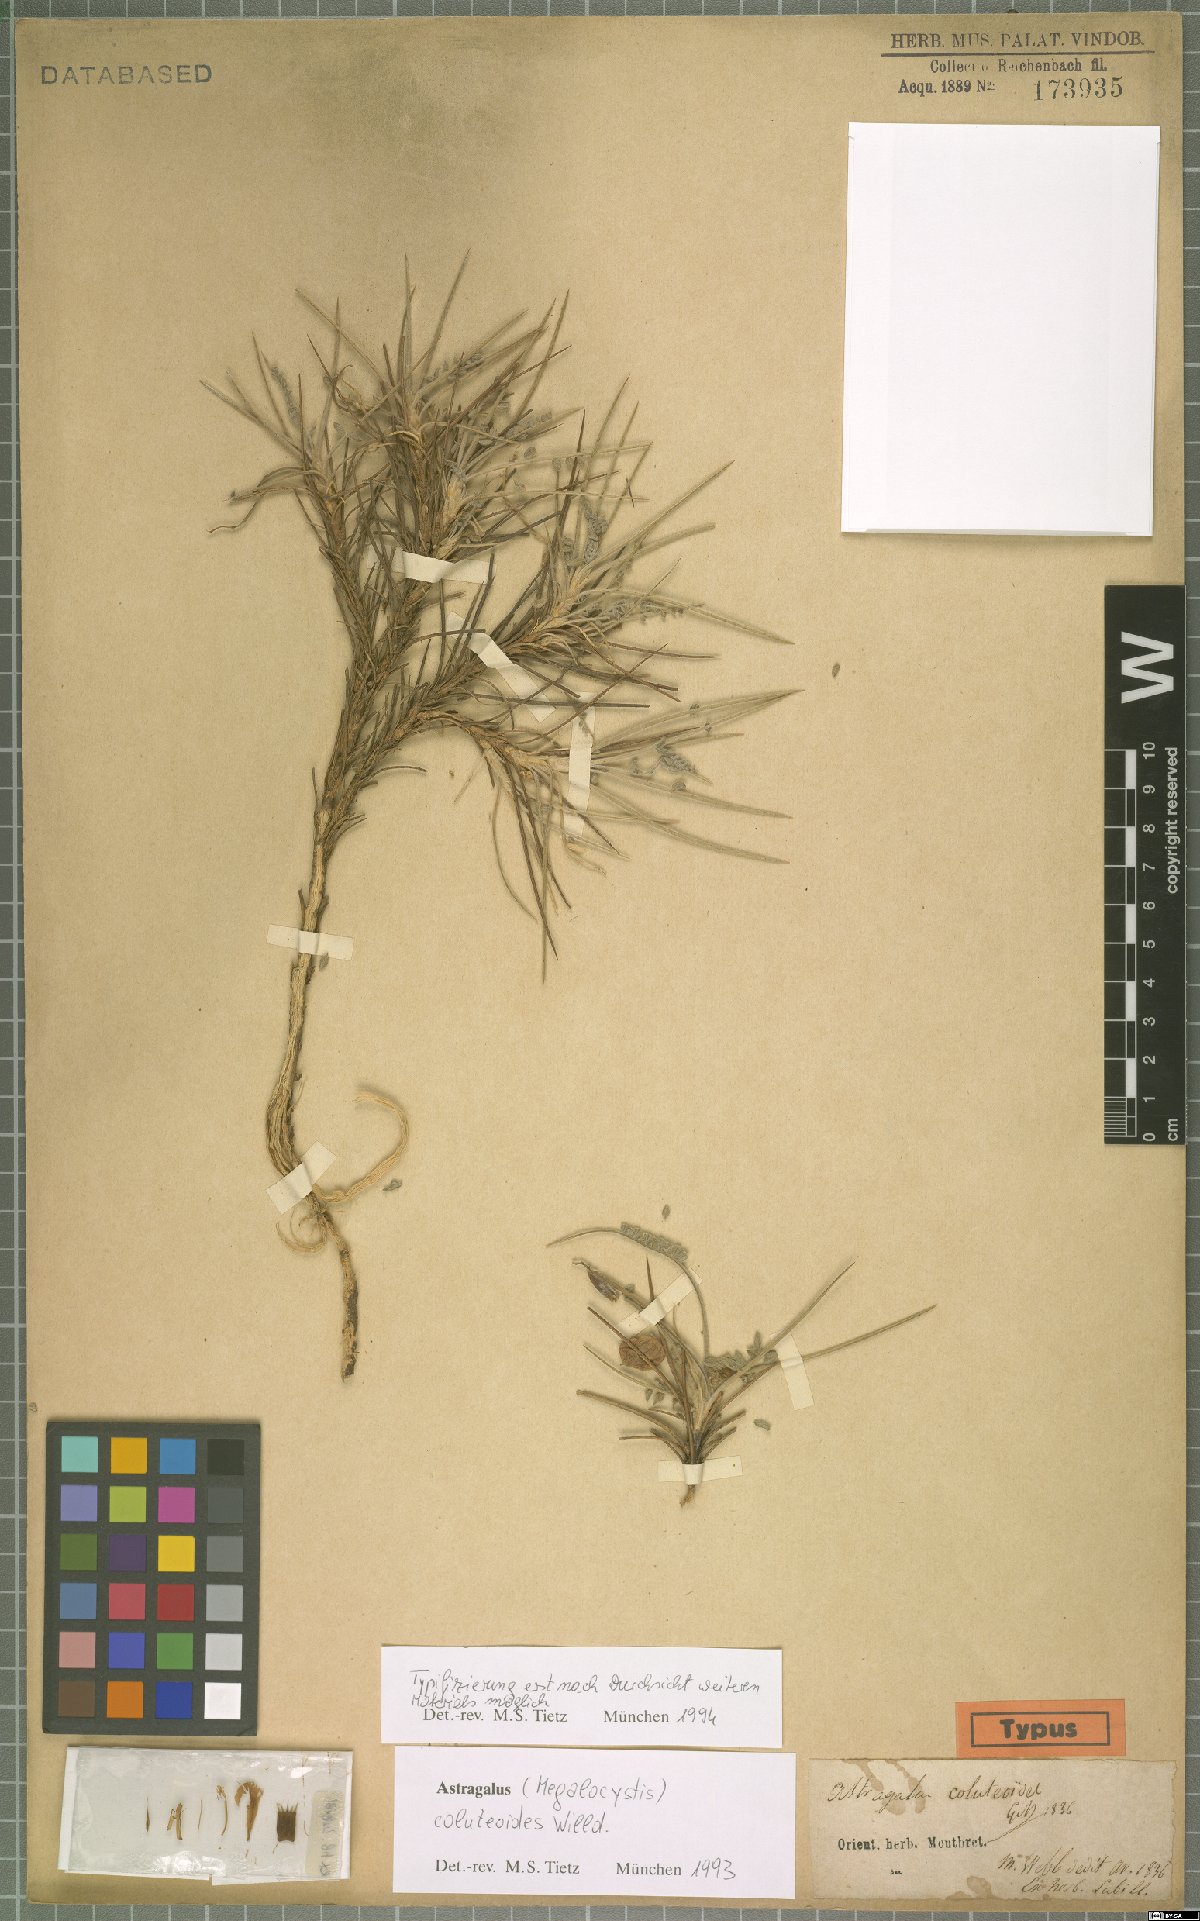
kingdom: Plantae
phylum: Tracheophyta
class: Magnoliopsida
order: Fabales
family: Fabaceae
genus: Astragalus
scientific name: Astragalus coluteoides
